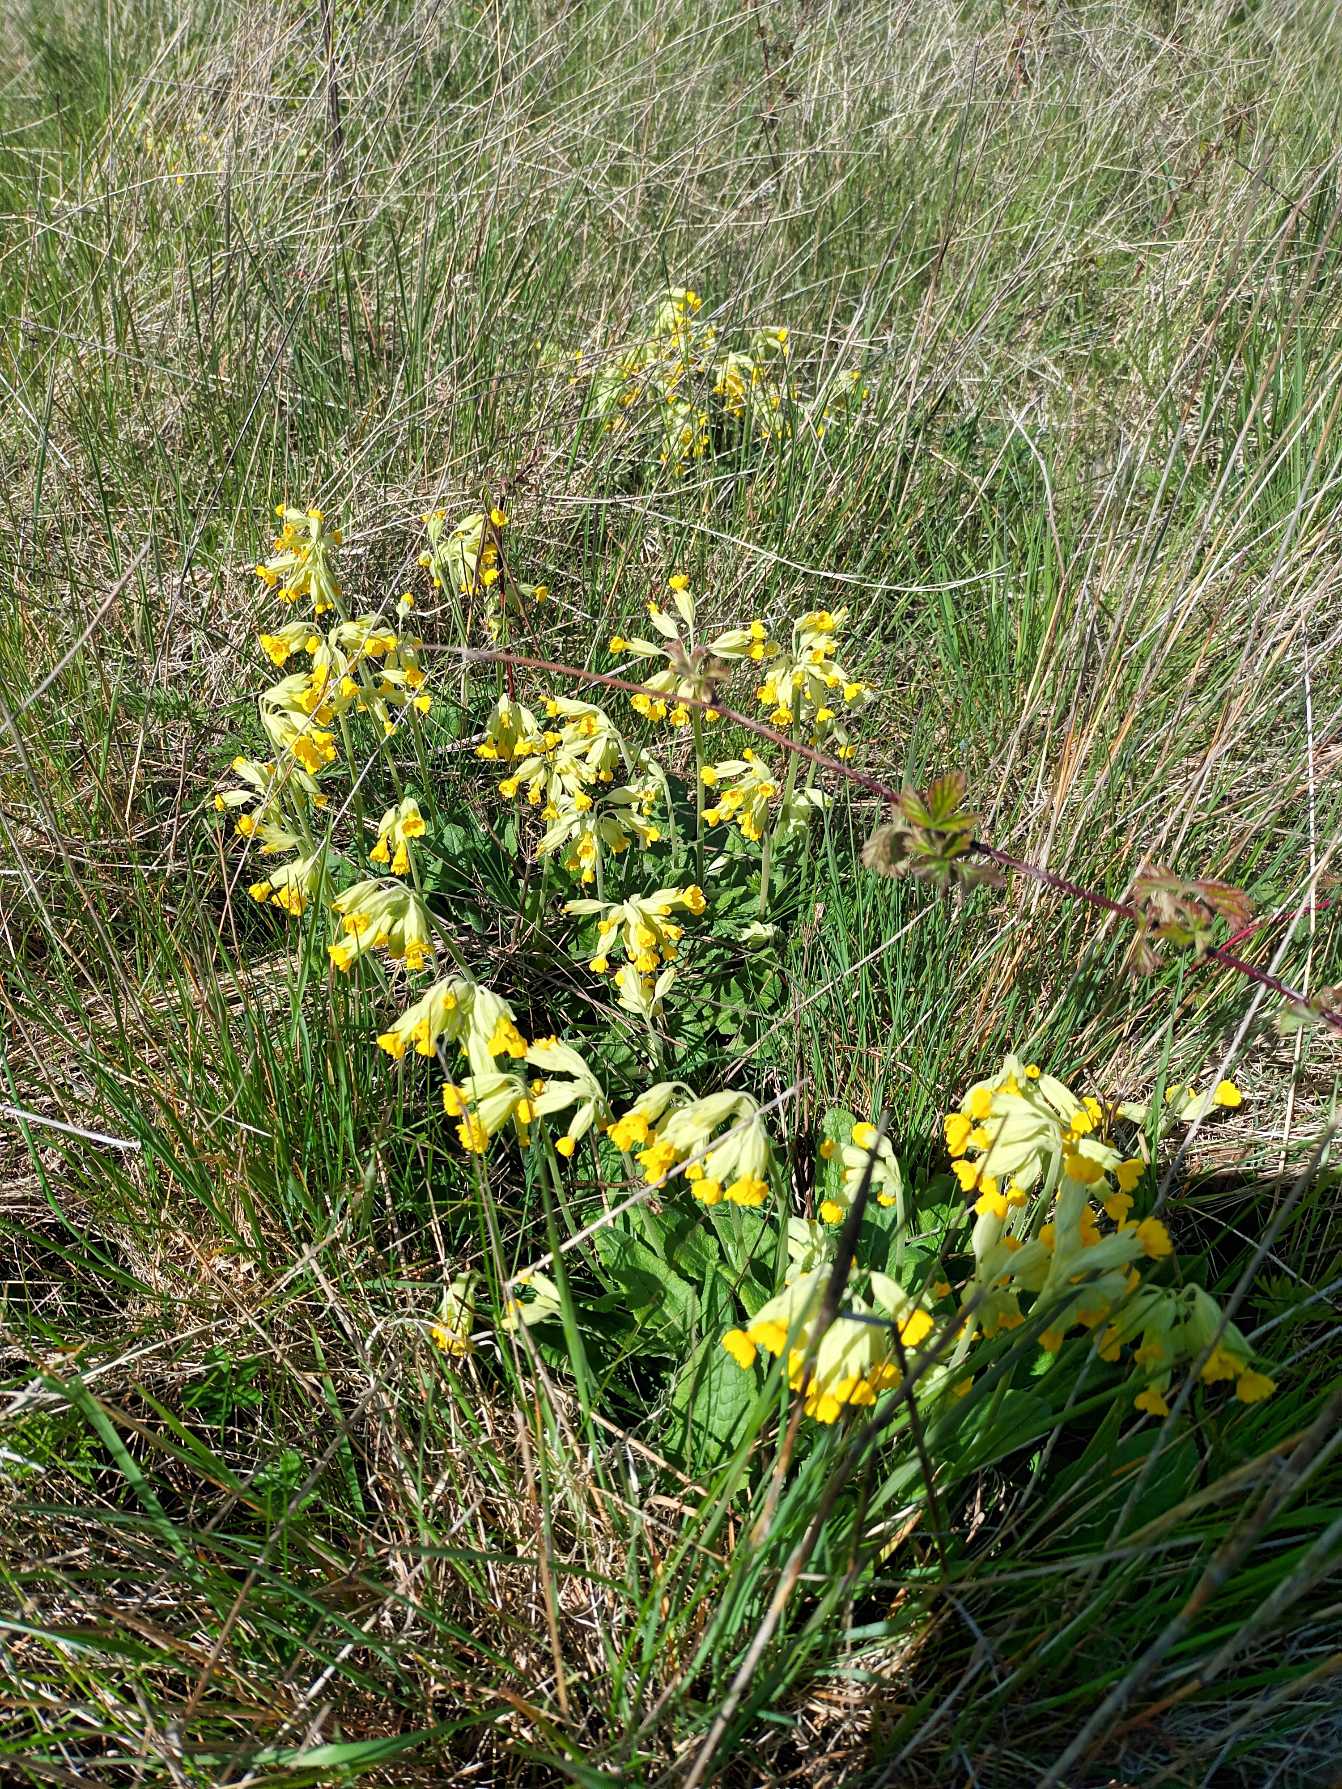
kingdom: Plantae
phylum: Tracheophyta
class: Magnoliopsida
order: Ericales
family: Primulaceae
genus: Primula
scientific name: Primula veris
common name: Hulkravet kodriver
